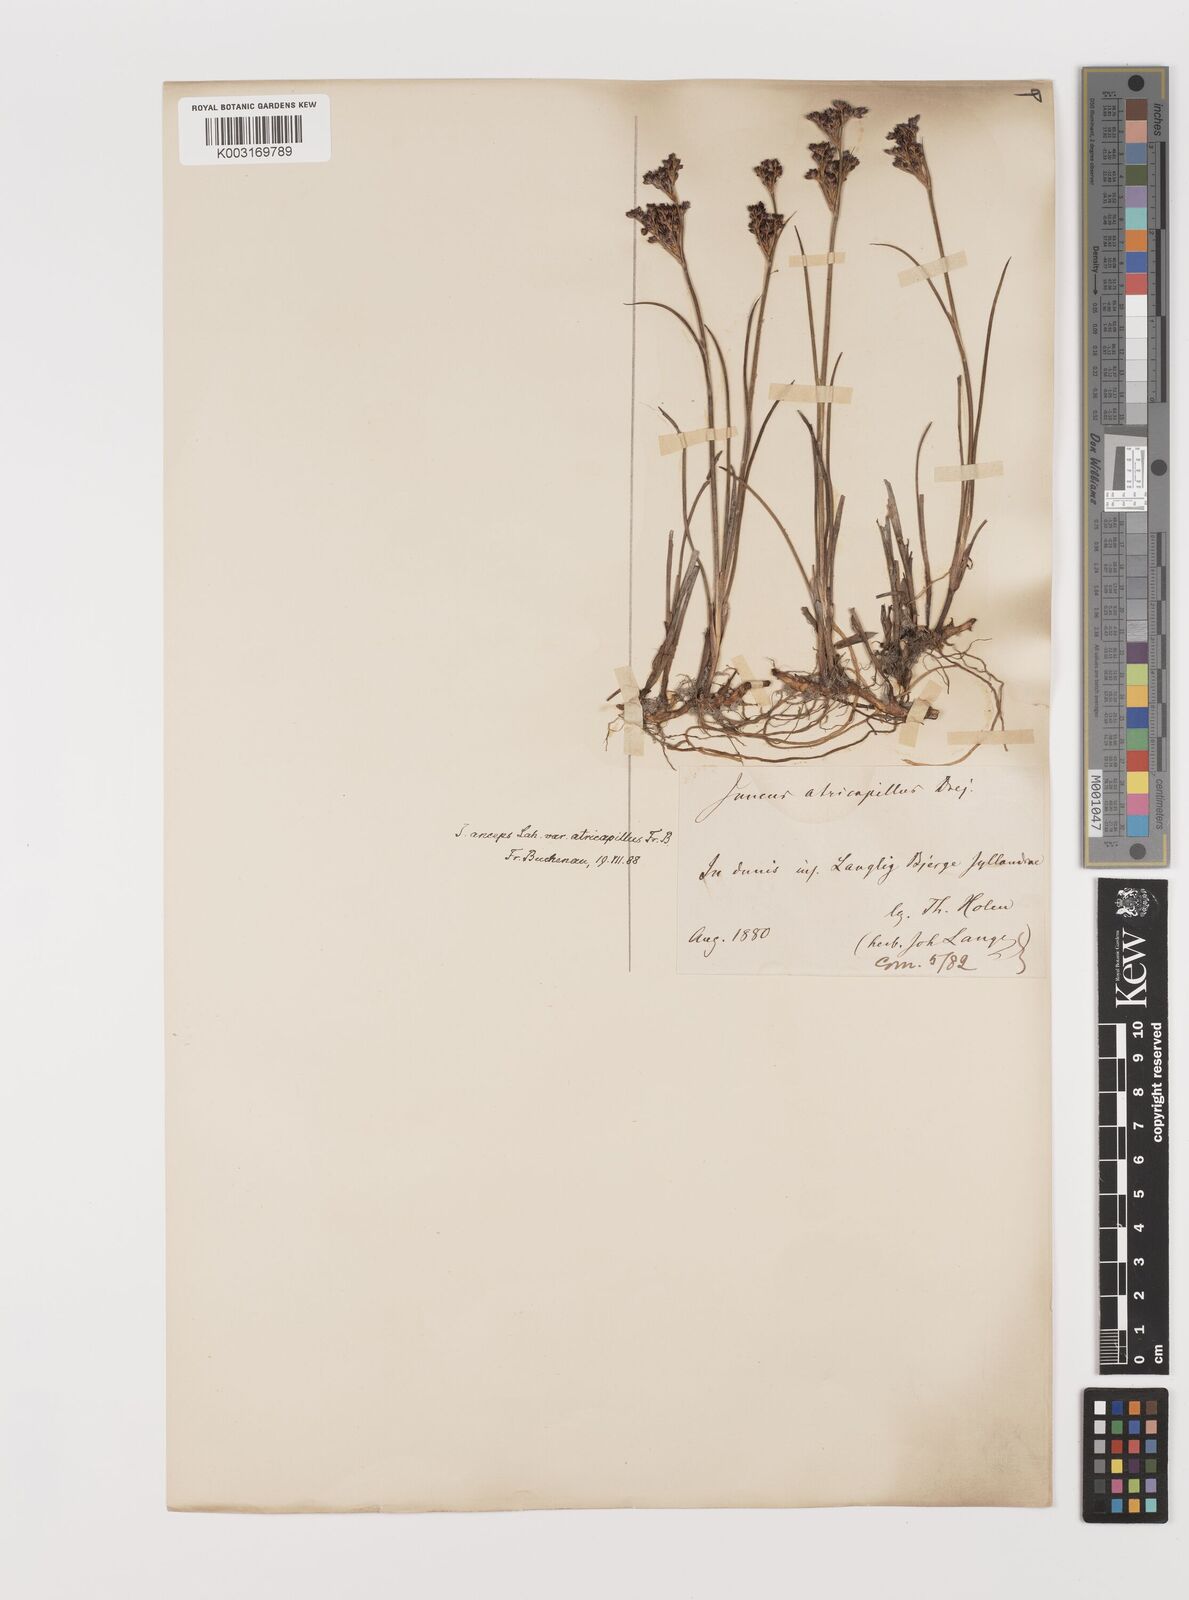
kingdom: Plantae
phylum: Tracheophyta
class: Liliopsida
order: Poales
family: Juncaceae
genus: Juncus
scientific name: Juncus anceps
